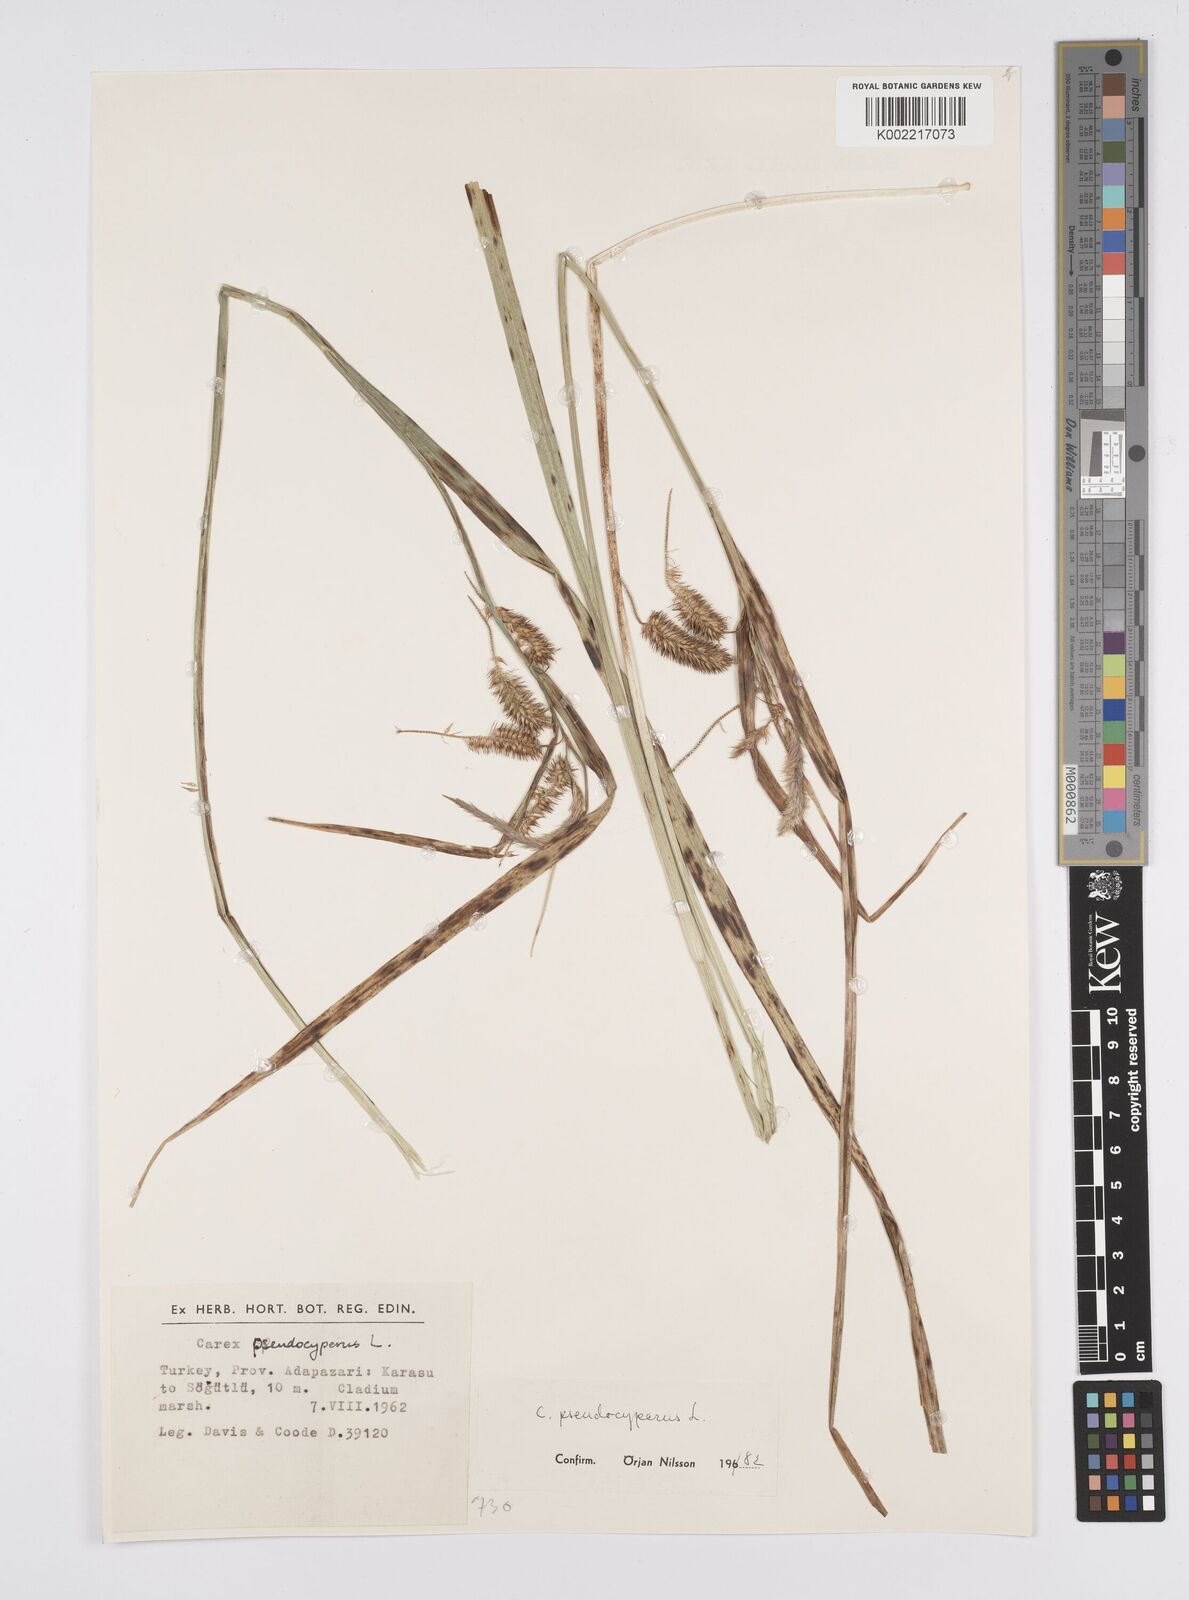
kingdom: Plantae
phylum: Tracheophyta
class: Liliopsida
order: Poales
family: Cyperaceae
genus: Carex
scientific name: Carex pseudocyperus
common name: Cyperus sedge
